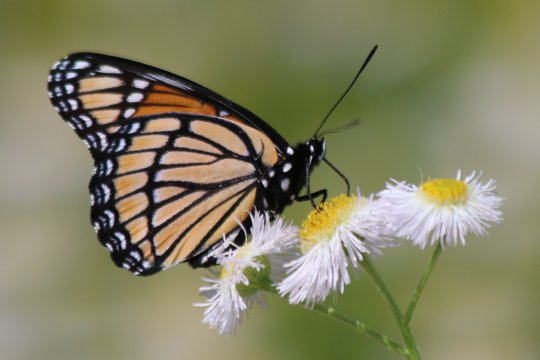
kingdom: Animalia
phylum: Arthropoda
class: Insecta
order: Lepidoptera
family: Nymphalidae
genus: Limenitis
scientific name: Limenitis archippus
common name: Viceroy
